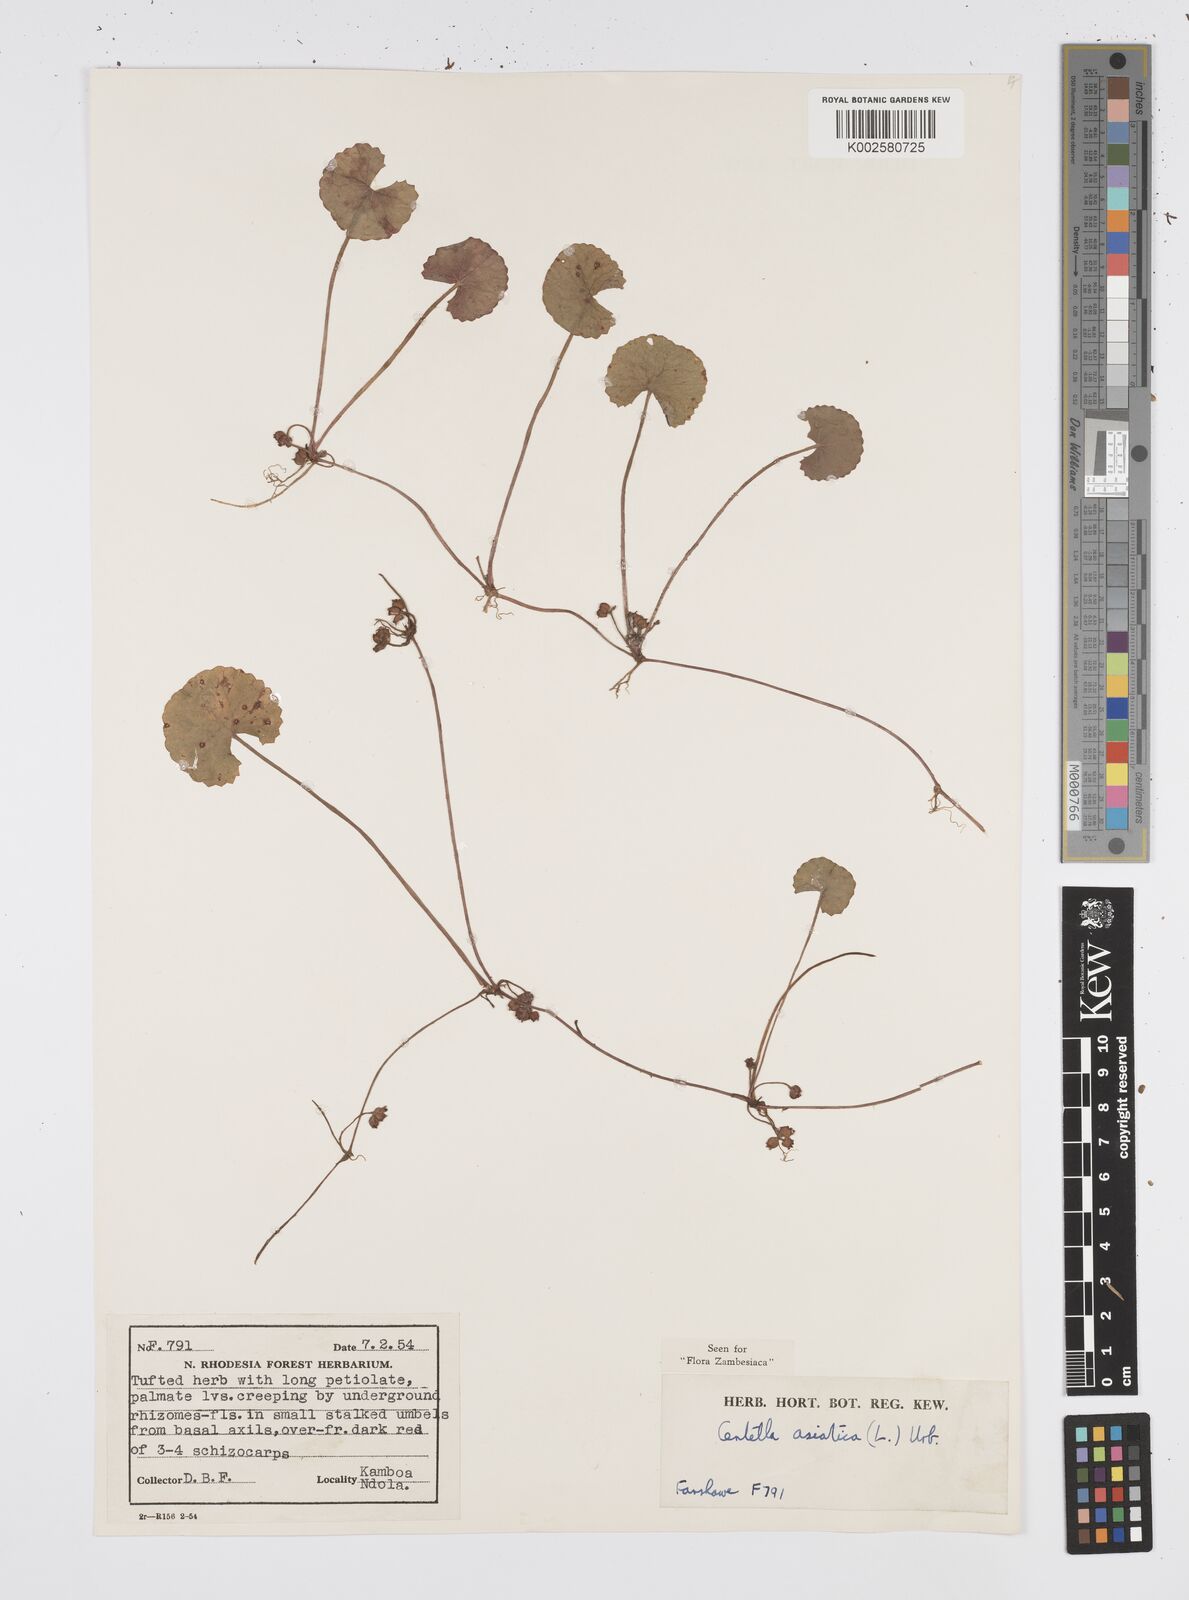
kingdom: Plantae
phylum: Tracheophyta
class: Magnoliopsida
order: Apiales
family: Apiaceae
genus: Centella
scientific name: Centella asiatica
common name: Spadeleaf
